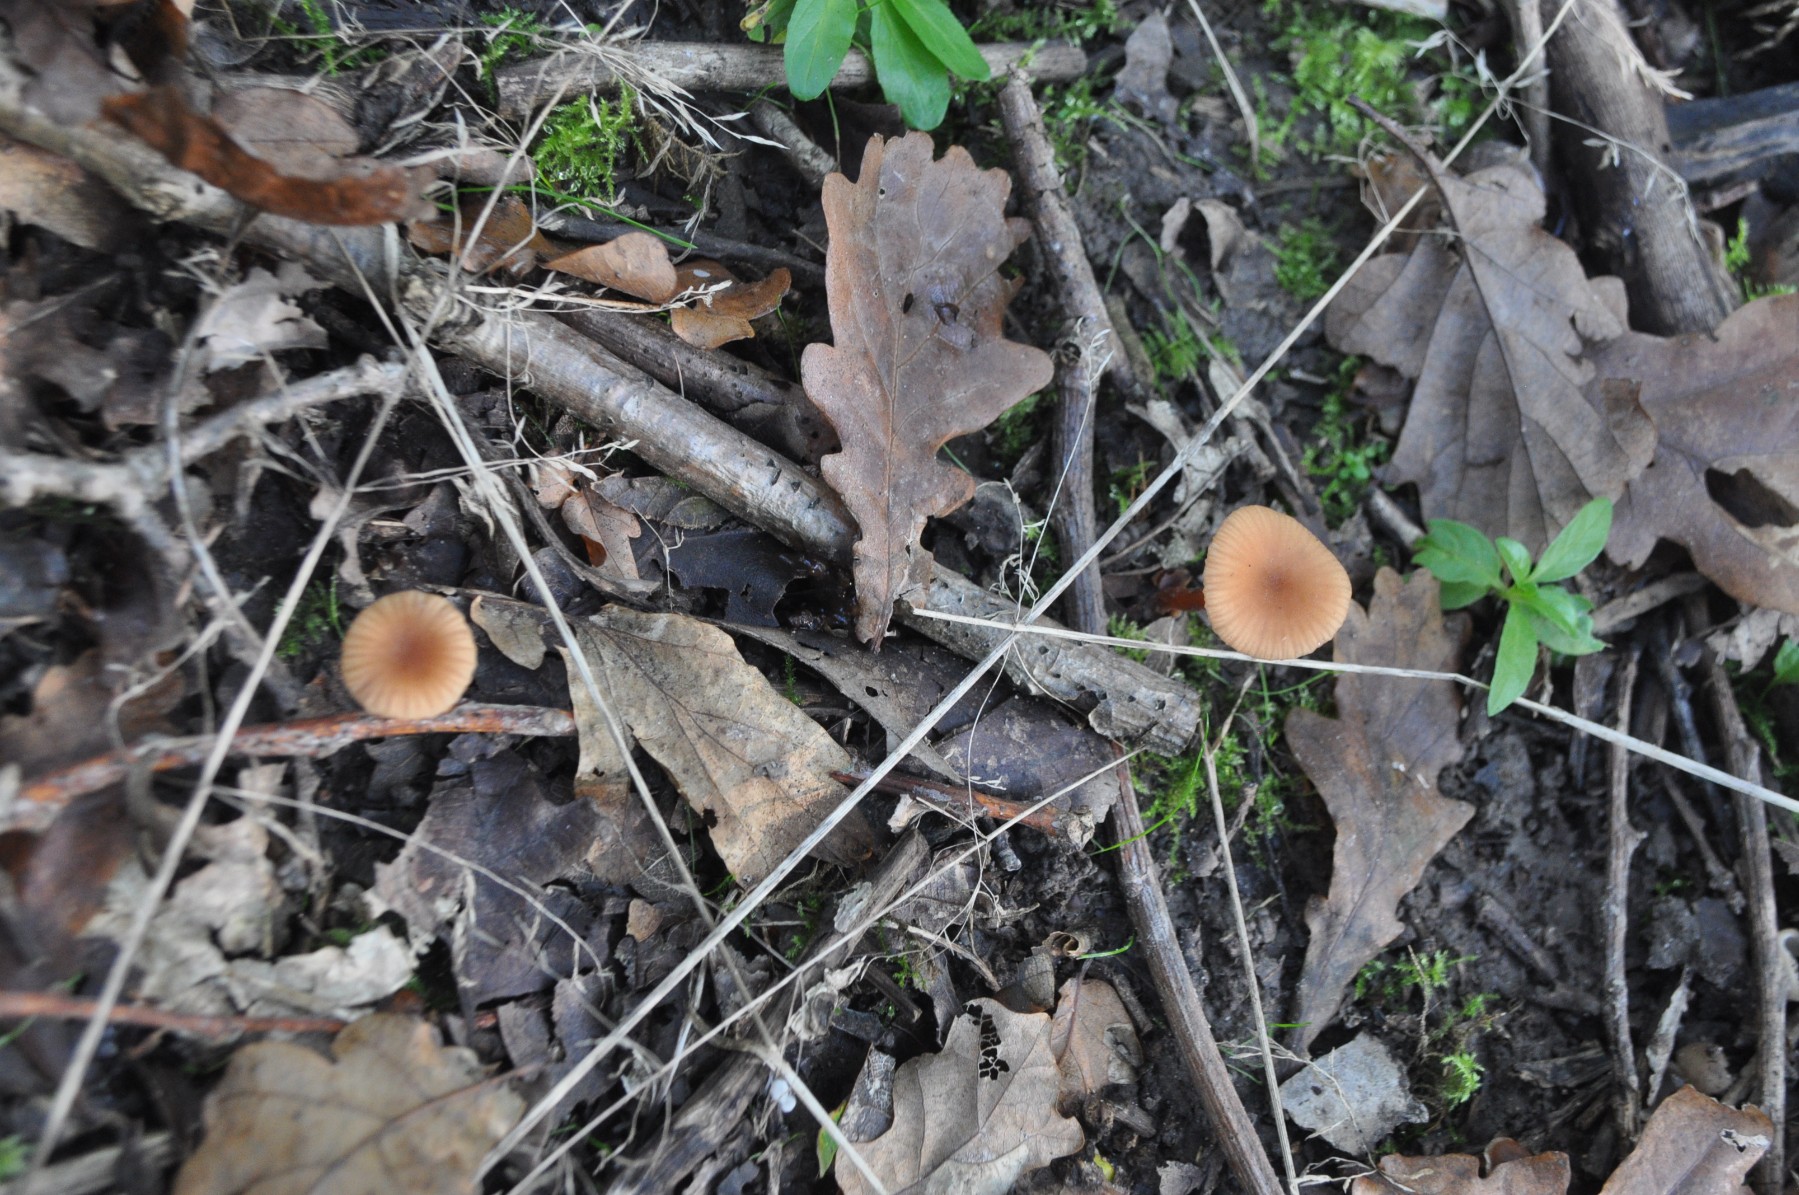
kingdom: Fungi
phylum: Basidiomycota
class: Agaricomycetes
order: Agaricales
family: Hydnangiaceae
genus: Laccaria
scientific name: Laccaria laccata
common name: rød ametysthat
